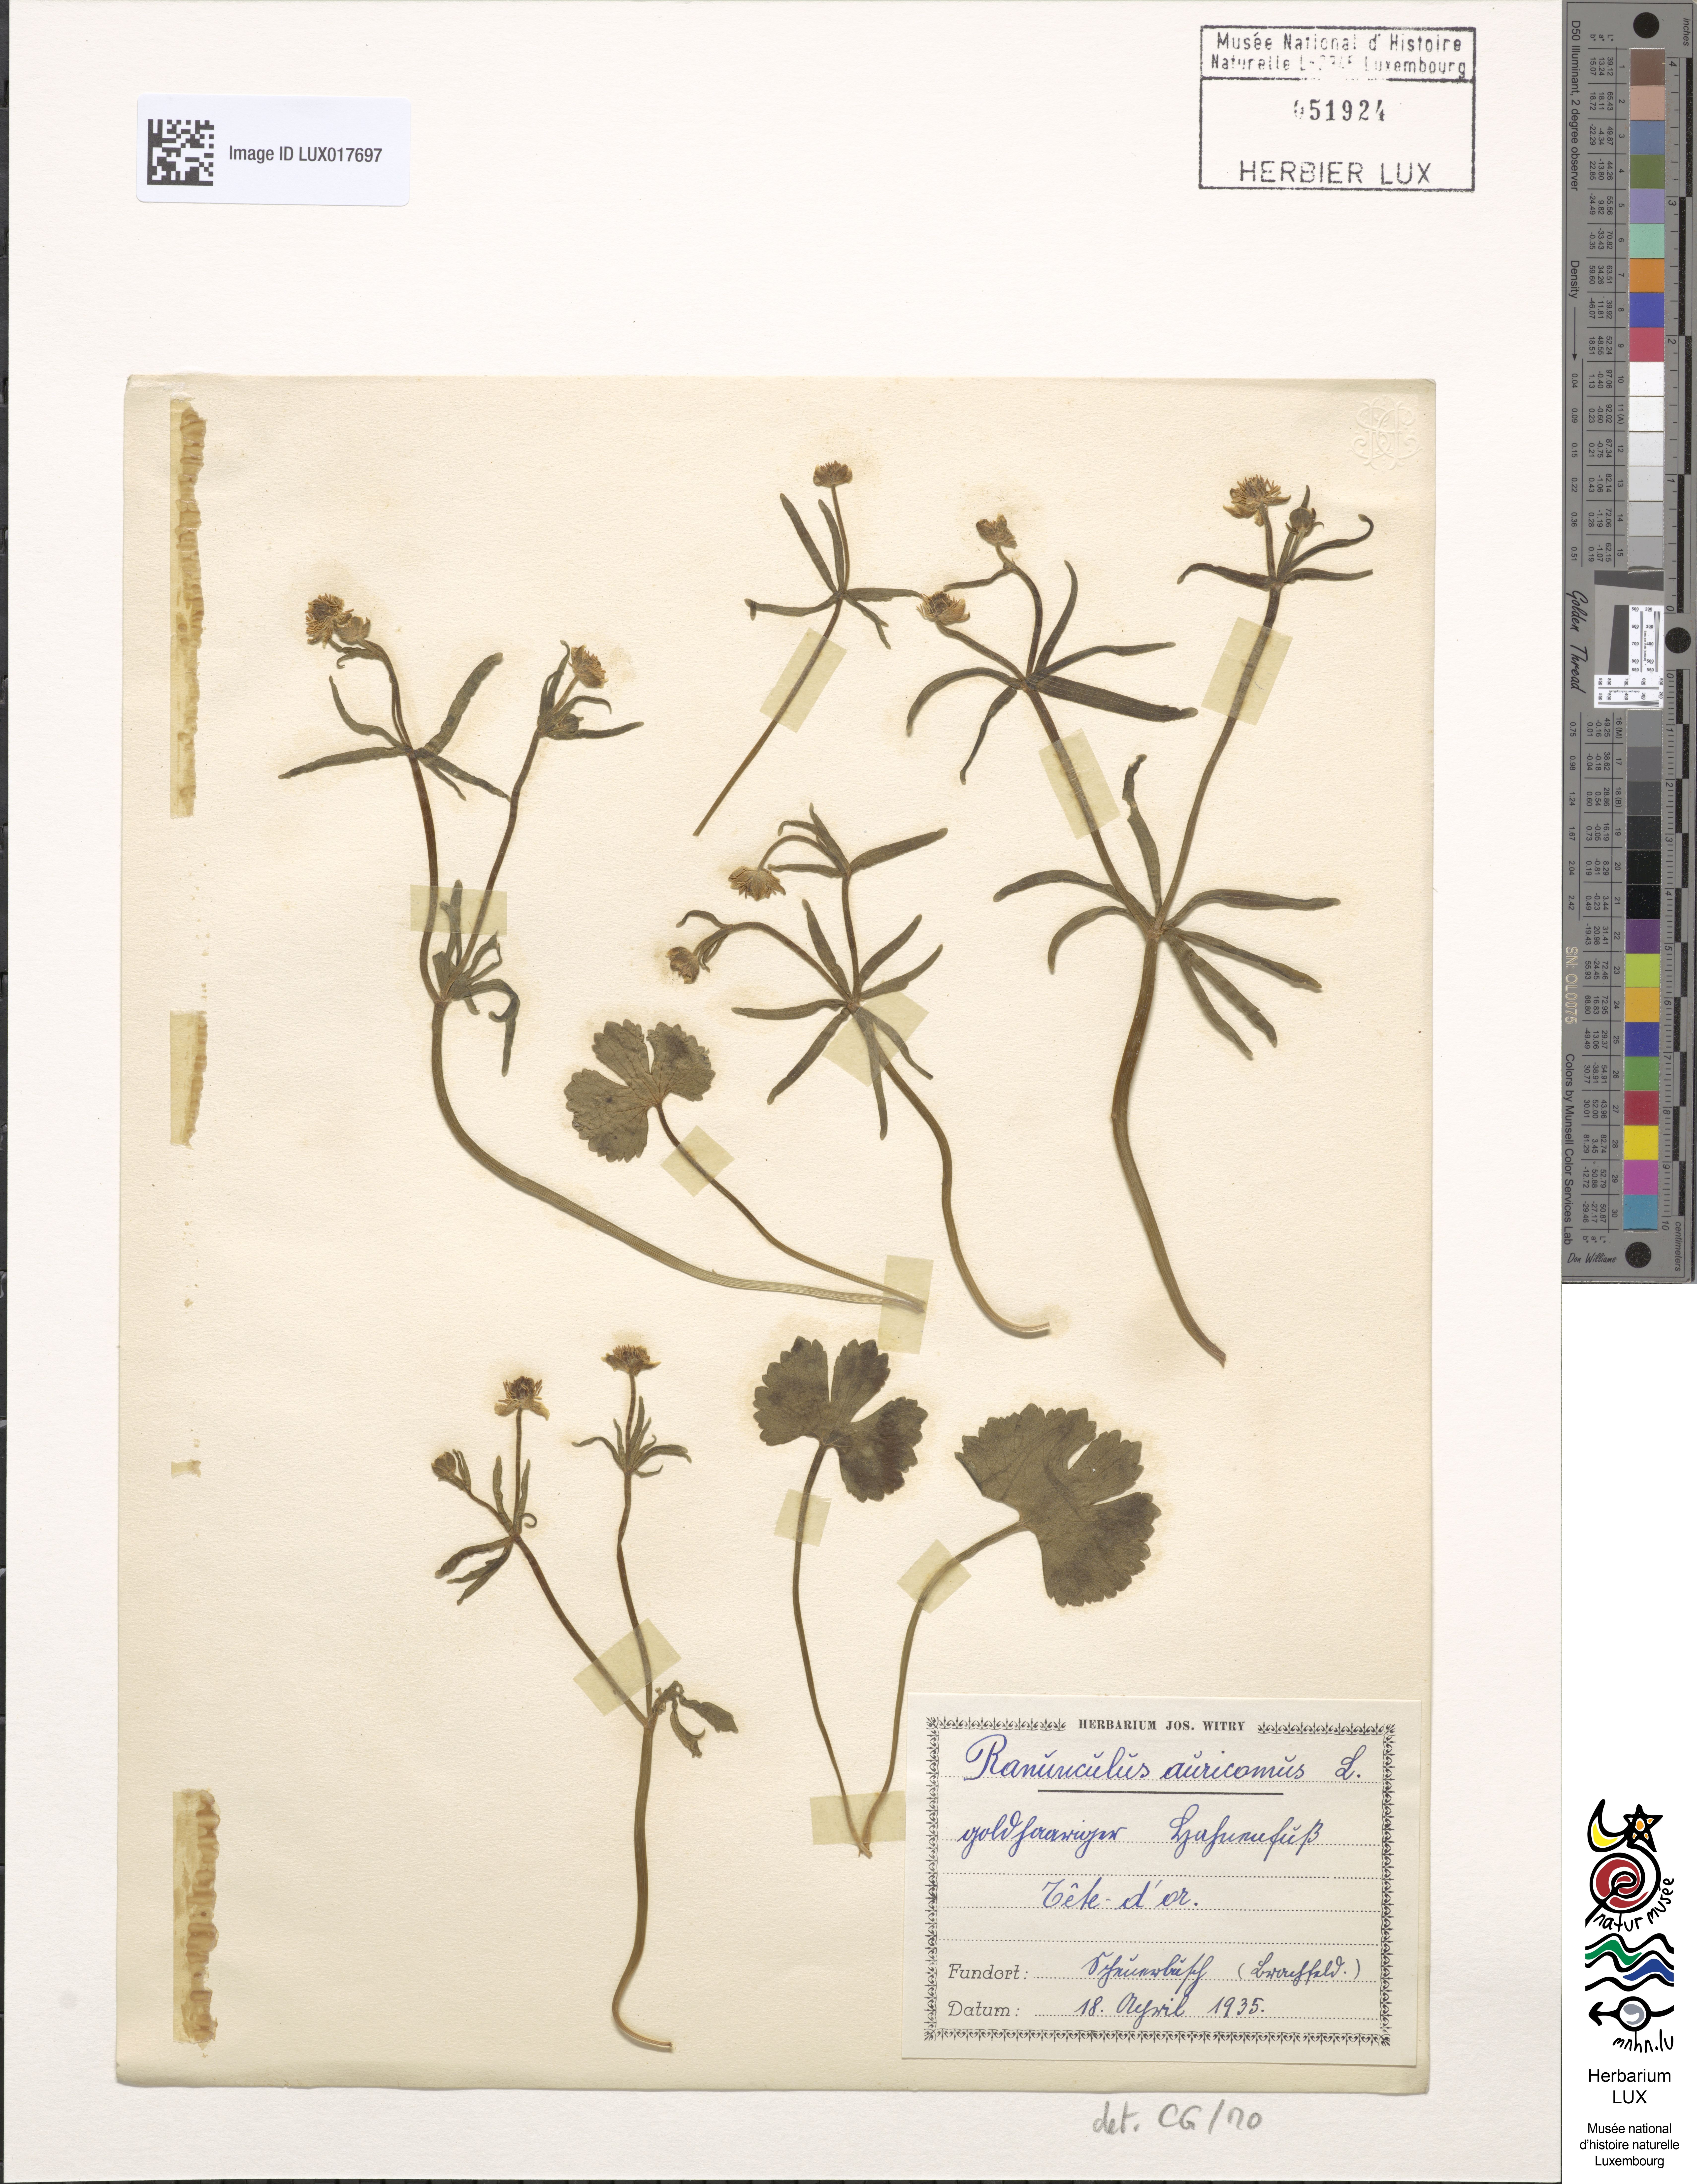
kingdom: Plantae
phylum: Tracheophyta
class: Magnoliopsida
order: Ranunculales
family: Ranunculaceae
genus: Ranunculus
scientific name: Ranunculus auricomus
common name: Goldilocks buttercup
